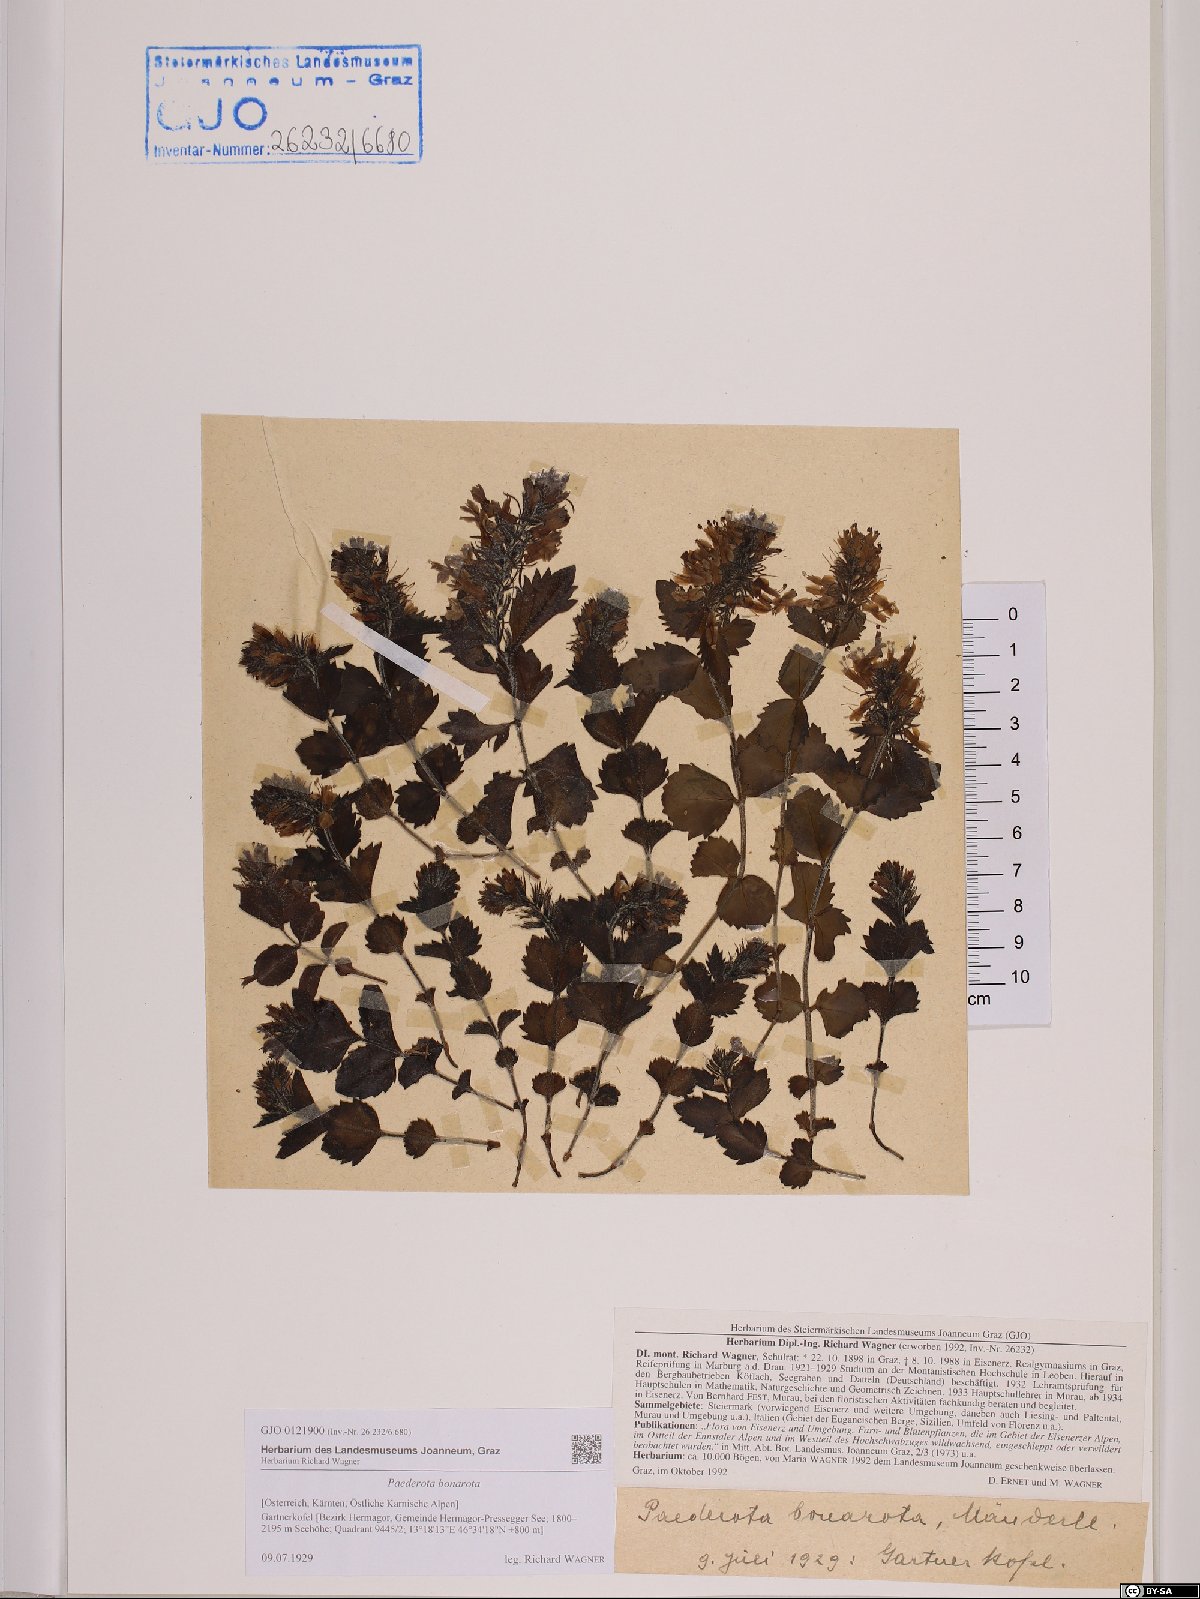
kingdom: Plantae
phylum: Tracheophyta
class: Magnoliopsida
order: Lamiales
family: Plantaginaceae
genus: Paederota
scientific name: Paederota bonarota
